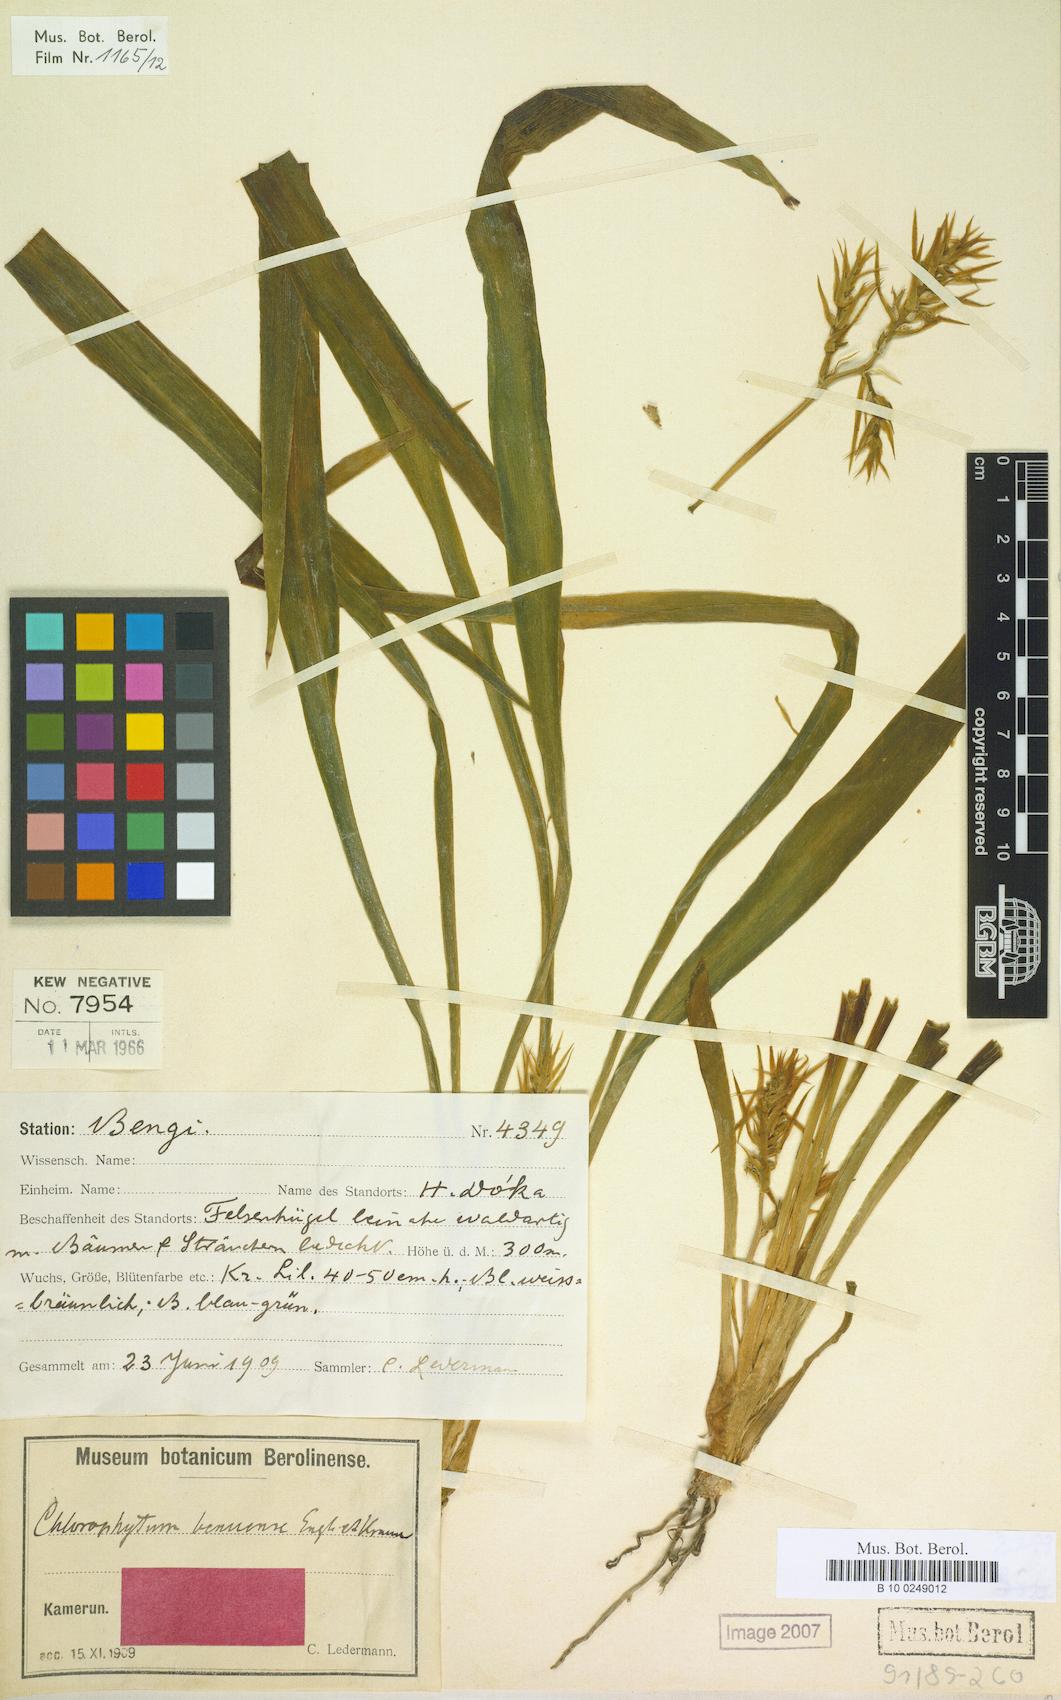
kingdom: Plantae
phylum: Tracheophyta
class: Liliopsida
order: Asparagales
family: Asparagaceae
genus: Chlorophytum
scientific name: Chlorophytum benuense
